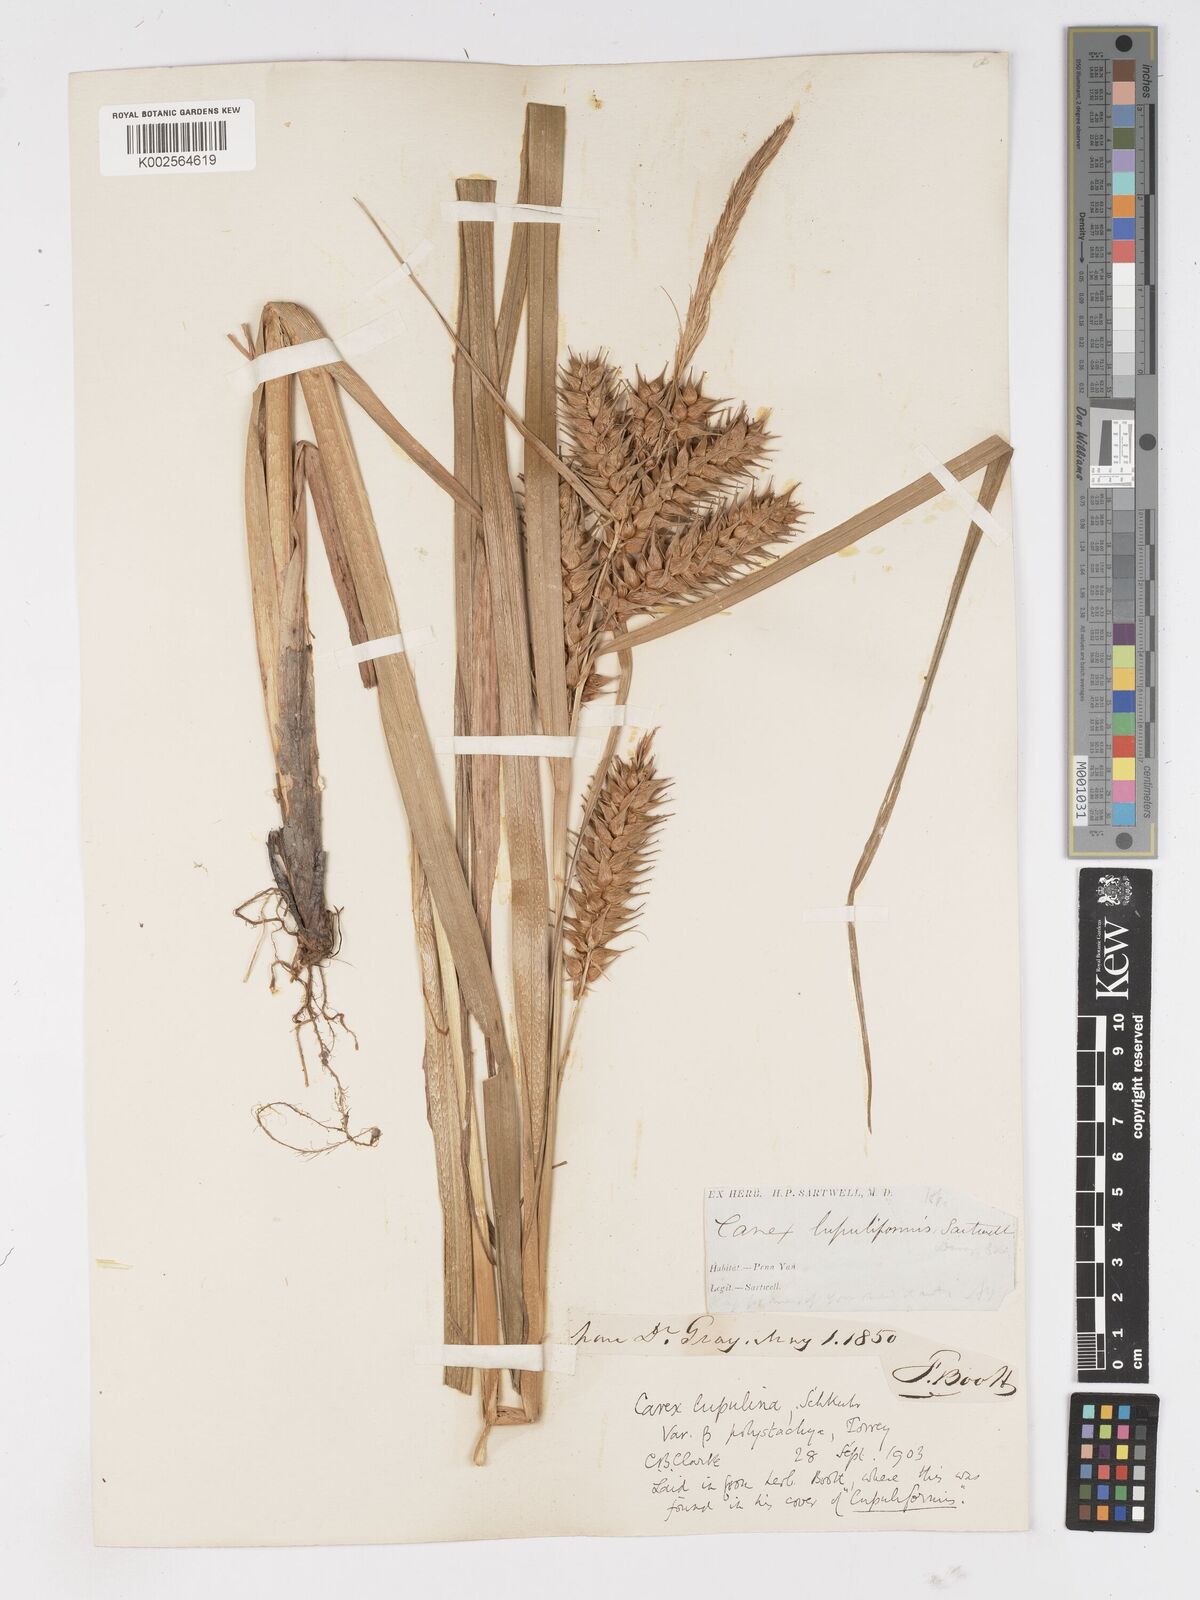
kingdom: Plantae
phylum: Tracheophyta
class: Liliopsida
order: Poales
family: Cyperaceae
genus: Carex
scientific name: Carex lupuliformis
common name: False hop sedge
